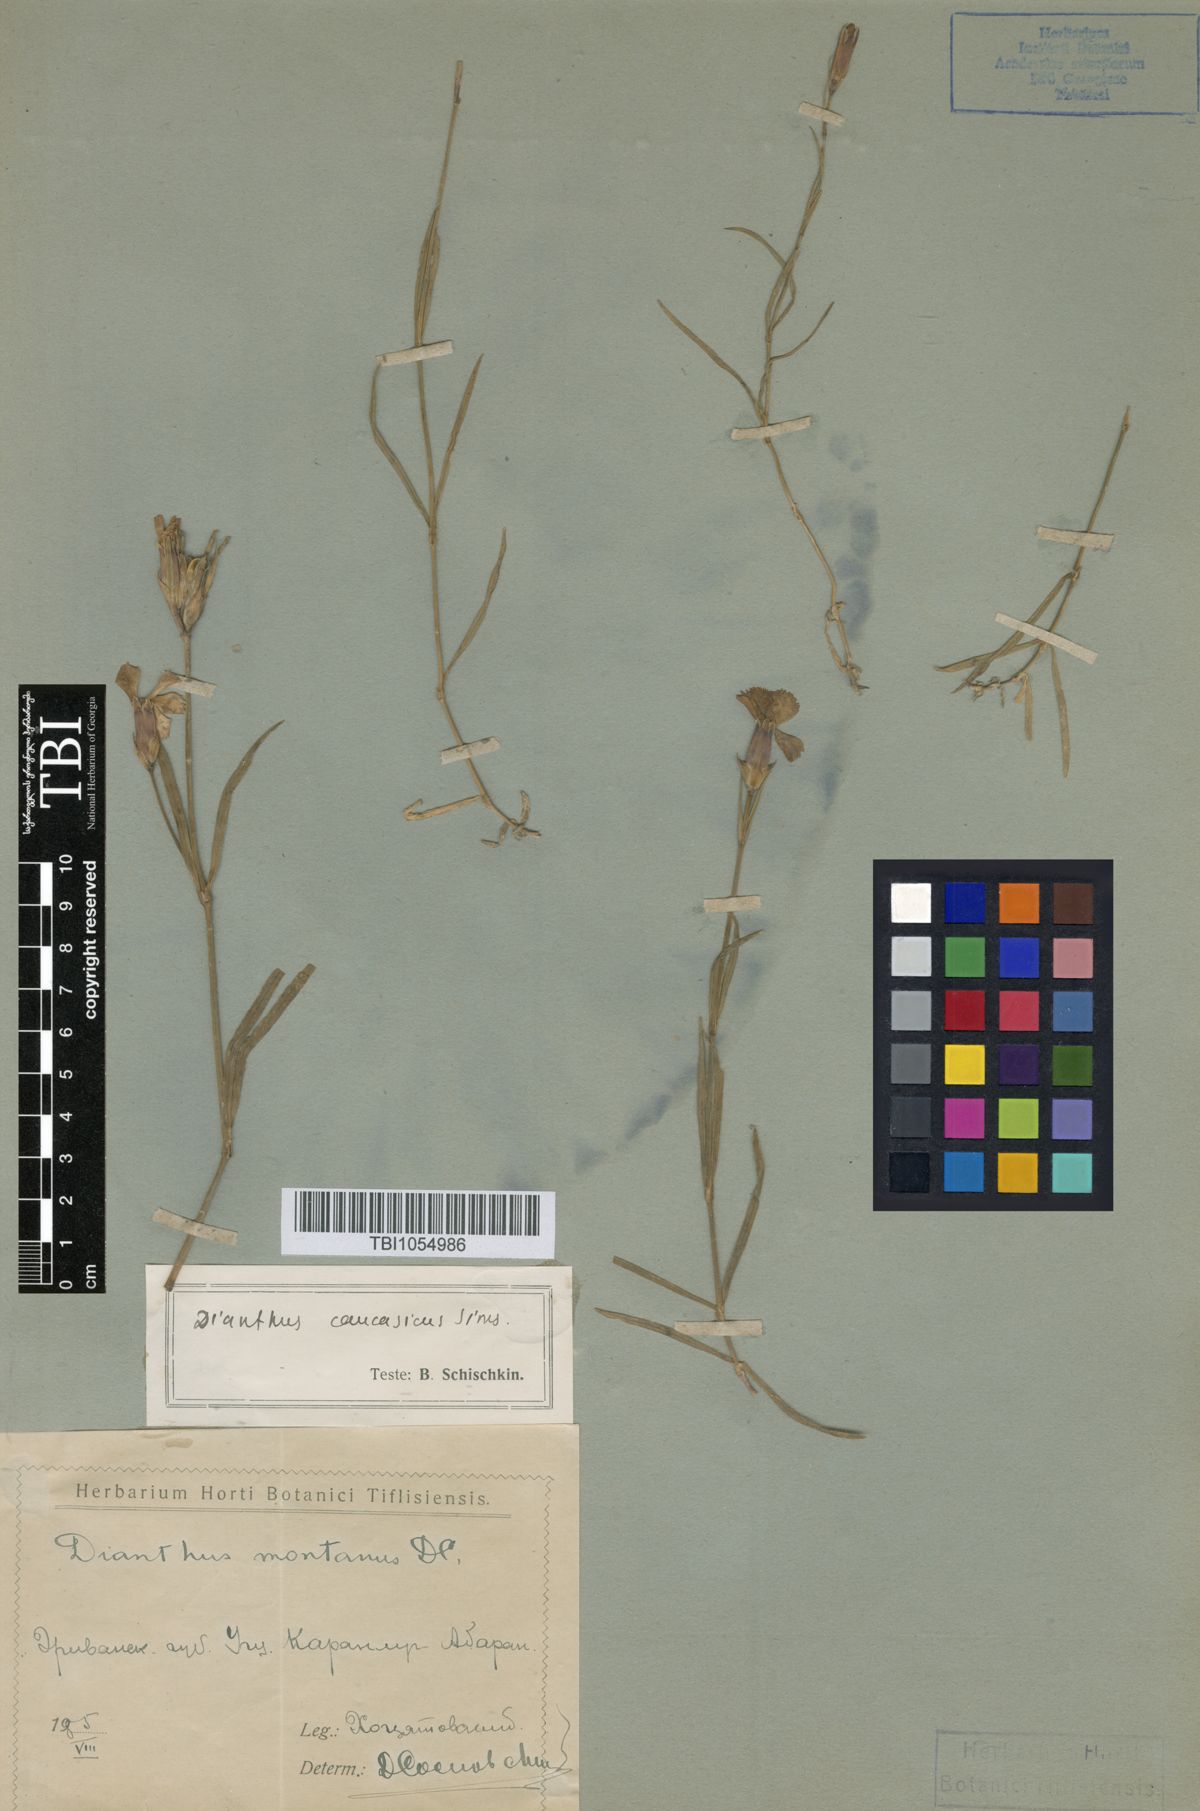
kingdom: Plantae
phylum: Tracheophyta
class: Magnoliopsida
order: Caryophyllales
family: Caryophyllaceae
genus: Dianthus
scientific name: Dianthus caucaseus
